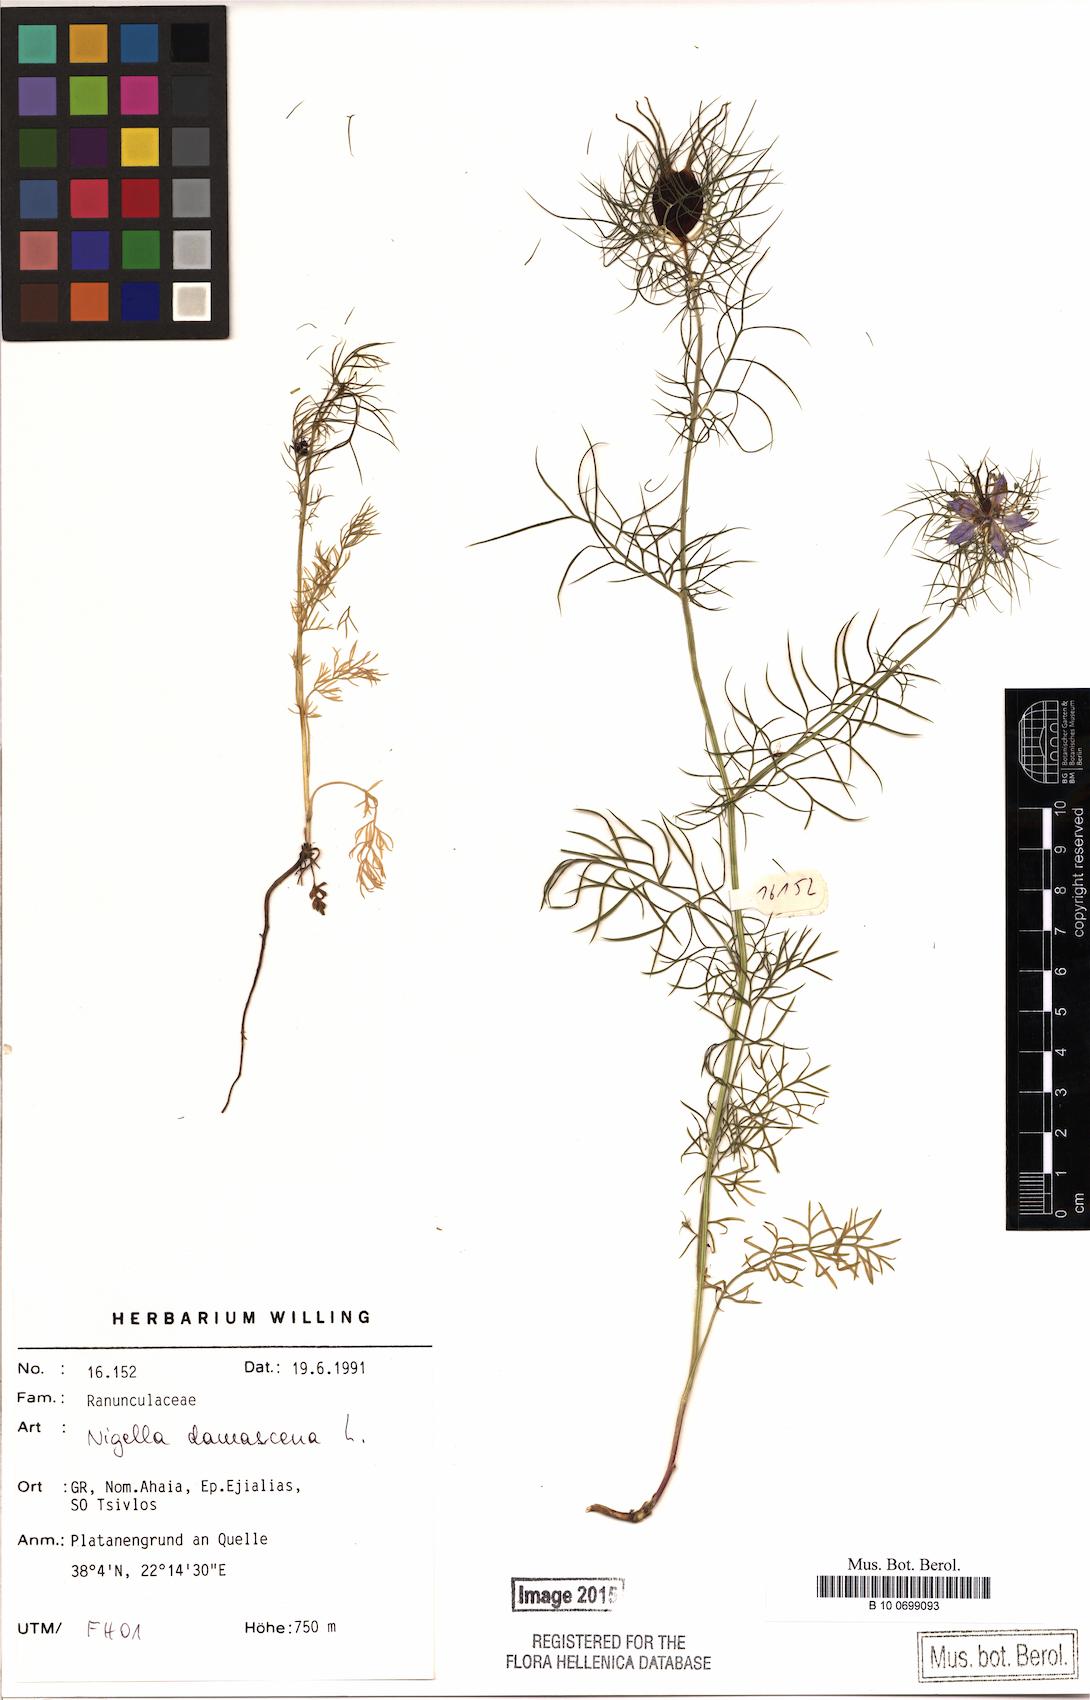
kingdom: Plantae
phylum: Tracheophyta
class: Magnoliopsida
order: Ranunculales
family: Ranunculaceae
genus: Nigella
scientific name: Nigella damascena
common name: Love-in-a-mist
